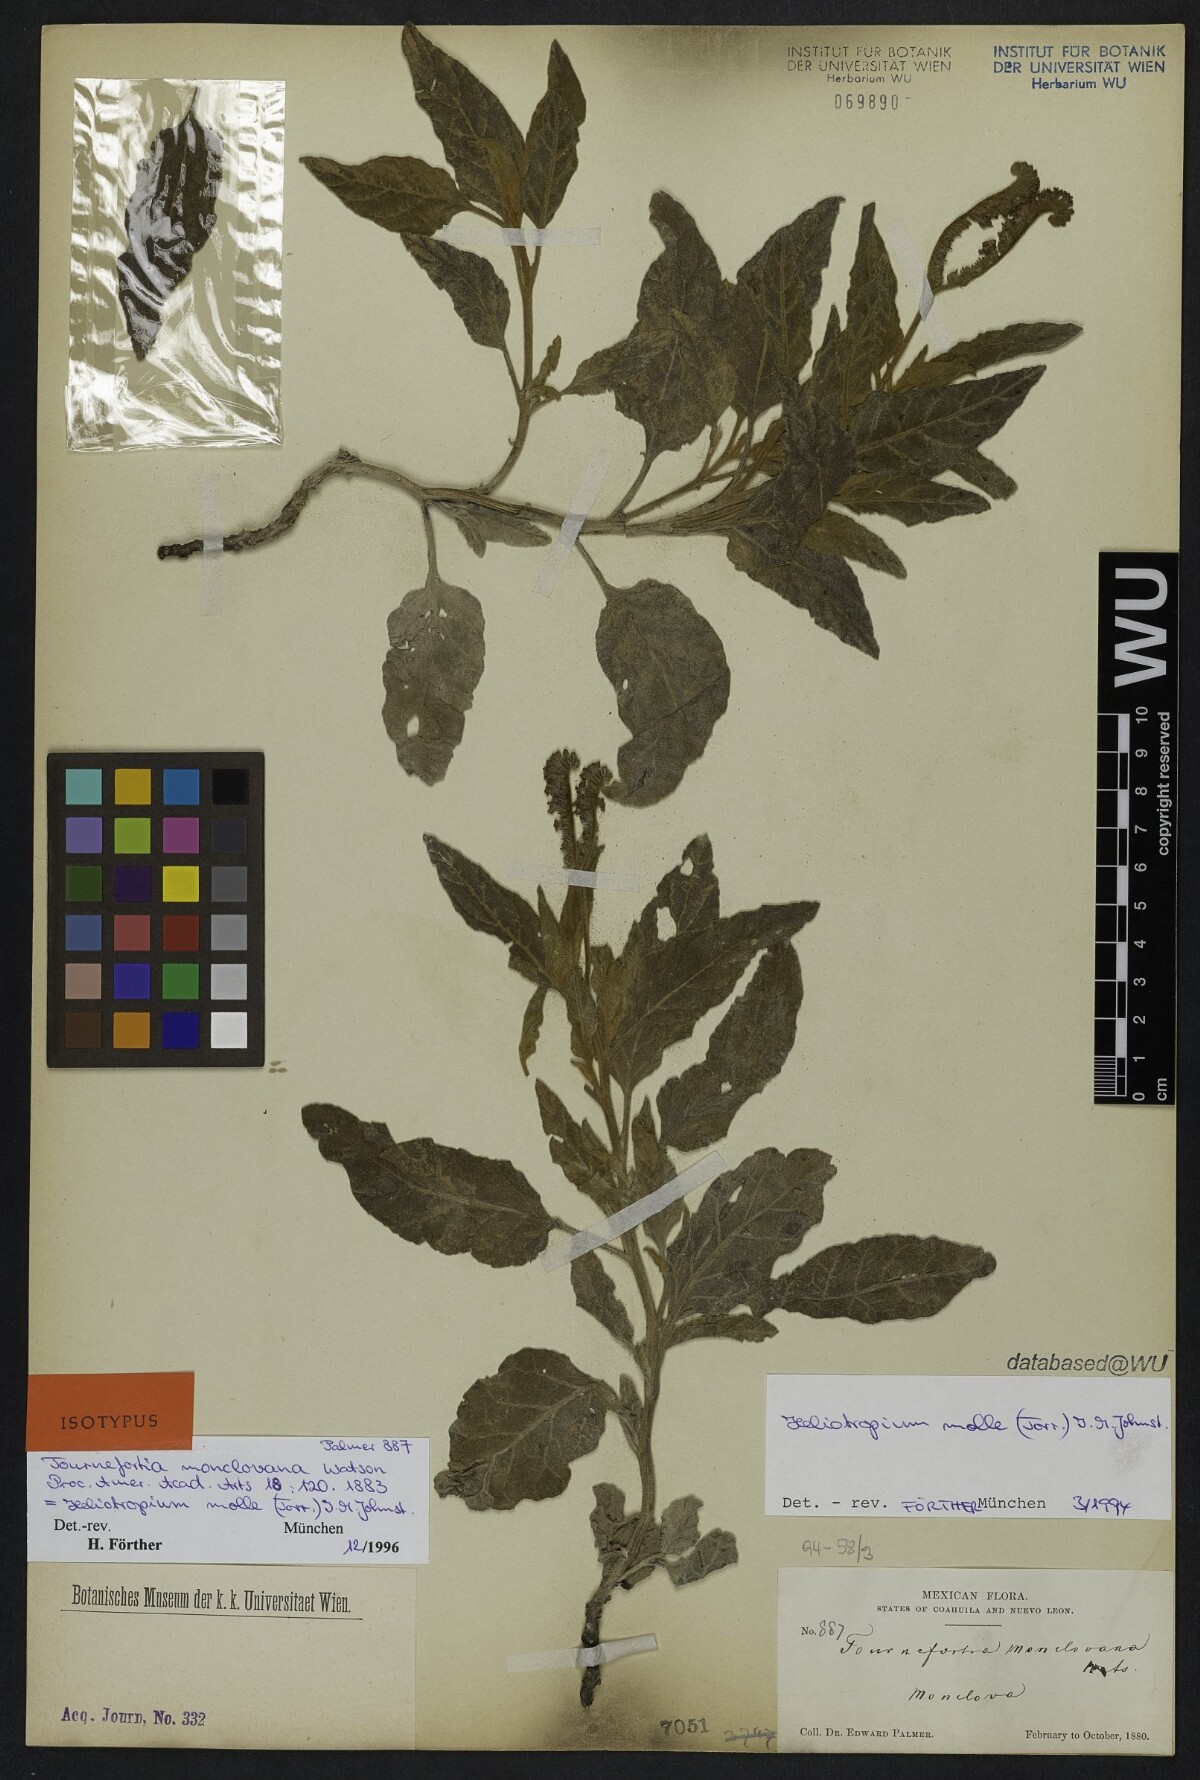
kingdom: Plantae
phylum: Tracheophyta
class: Magnoliopsida
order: Boraginales
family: Heliotropiaceae
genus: Heliotropium
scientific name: Heliotropium molle
